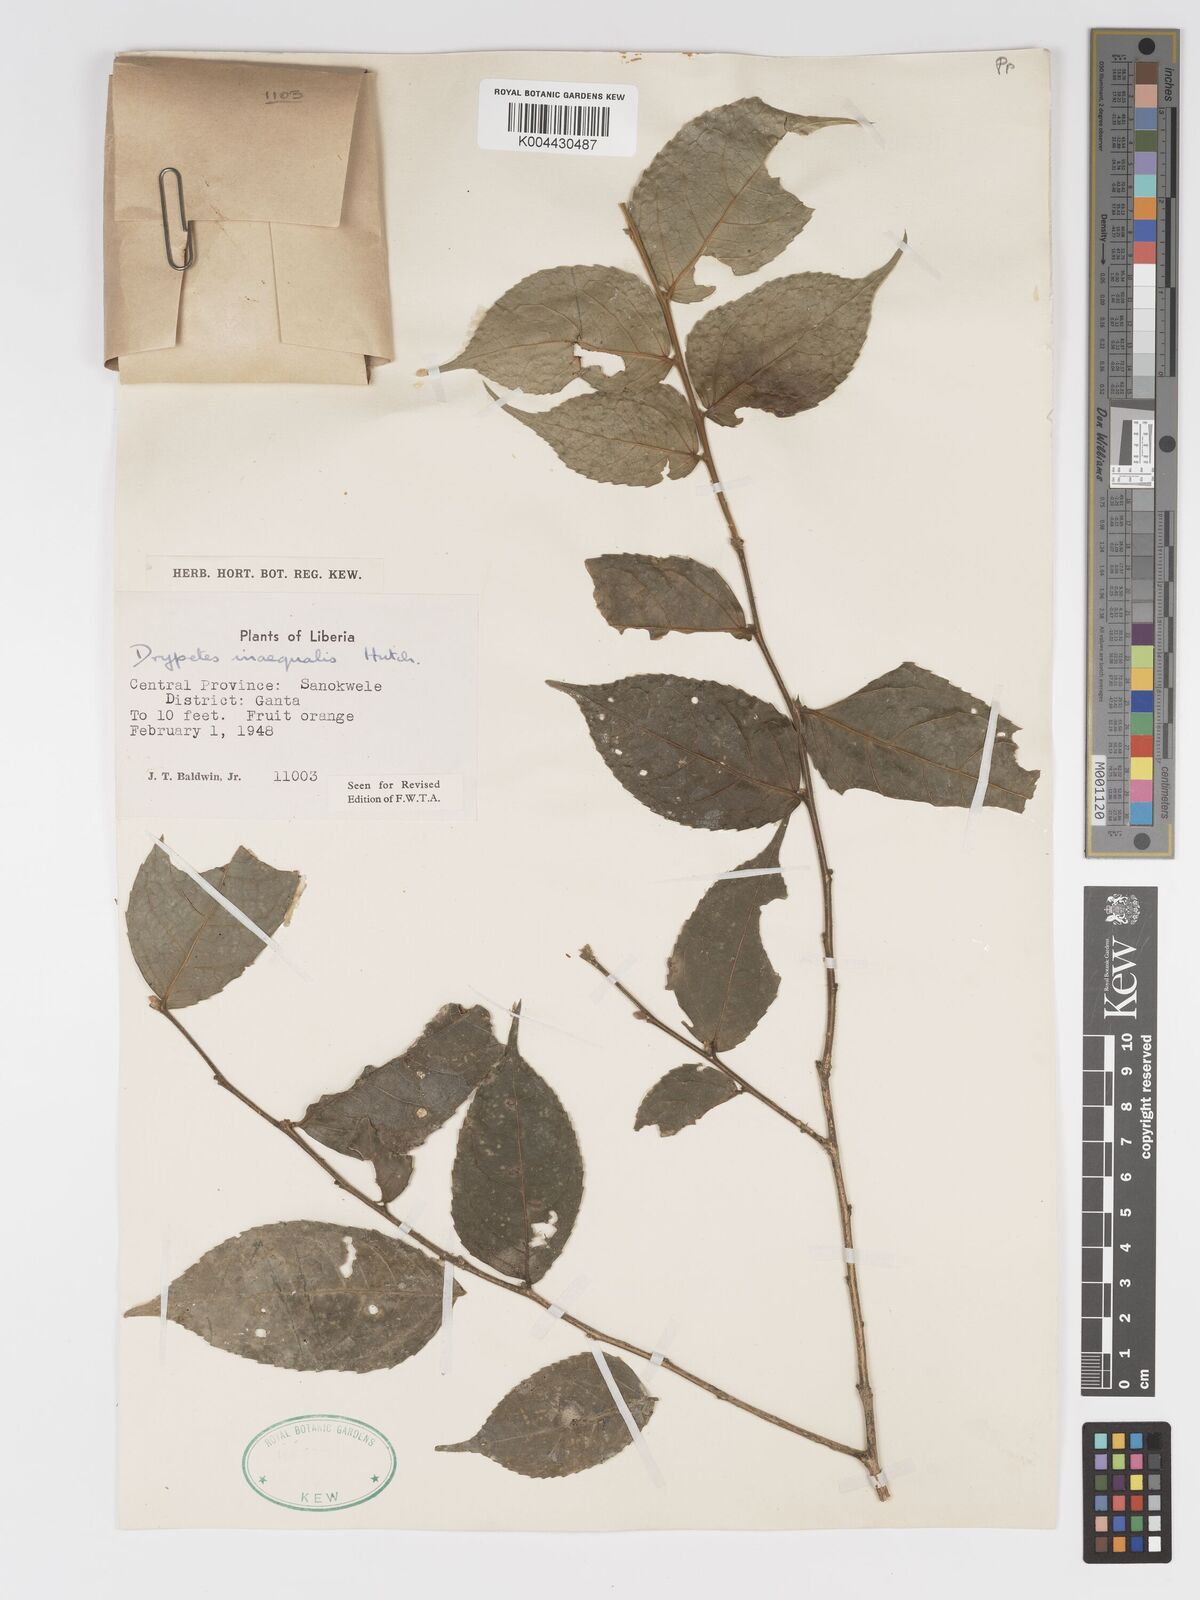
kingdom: Plantae
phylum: Tracheophyta
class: Magnoliopsida
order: Malpighiales
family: Putranjivaceae
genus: Drypetes
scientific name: Drypetes inaequalis
